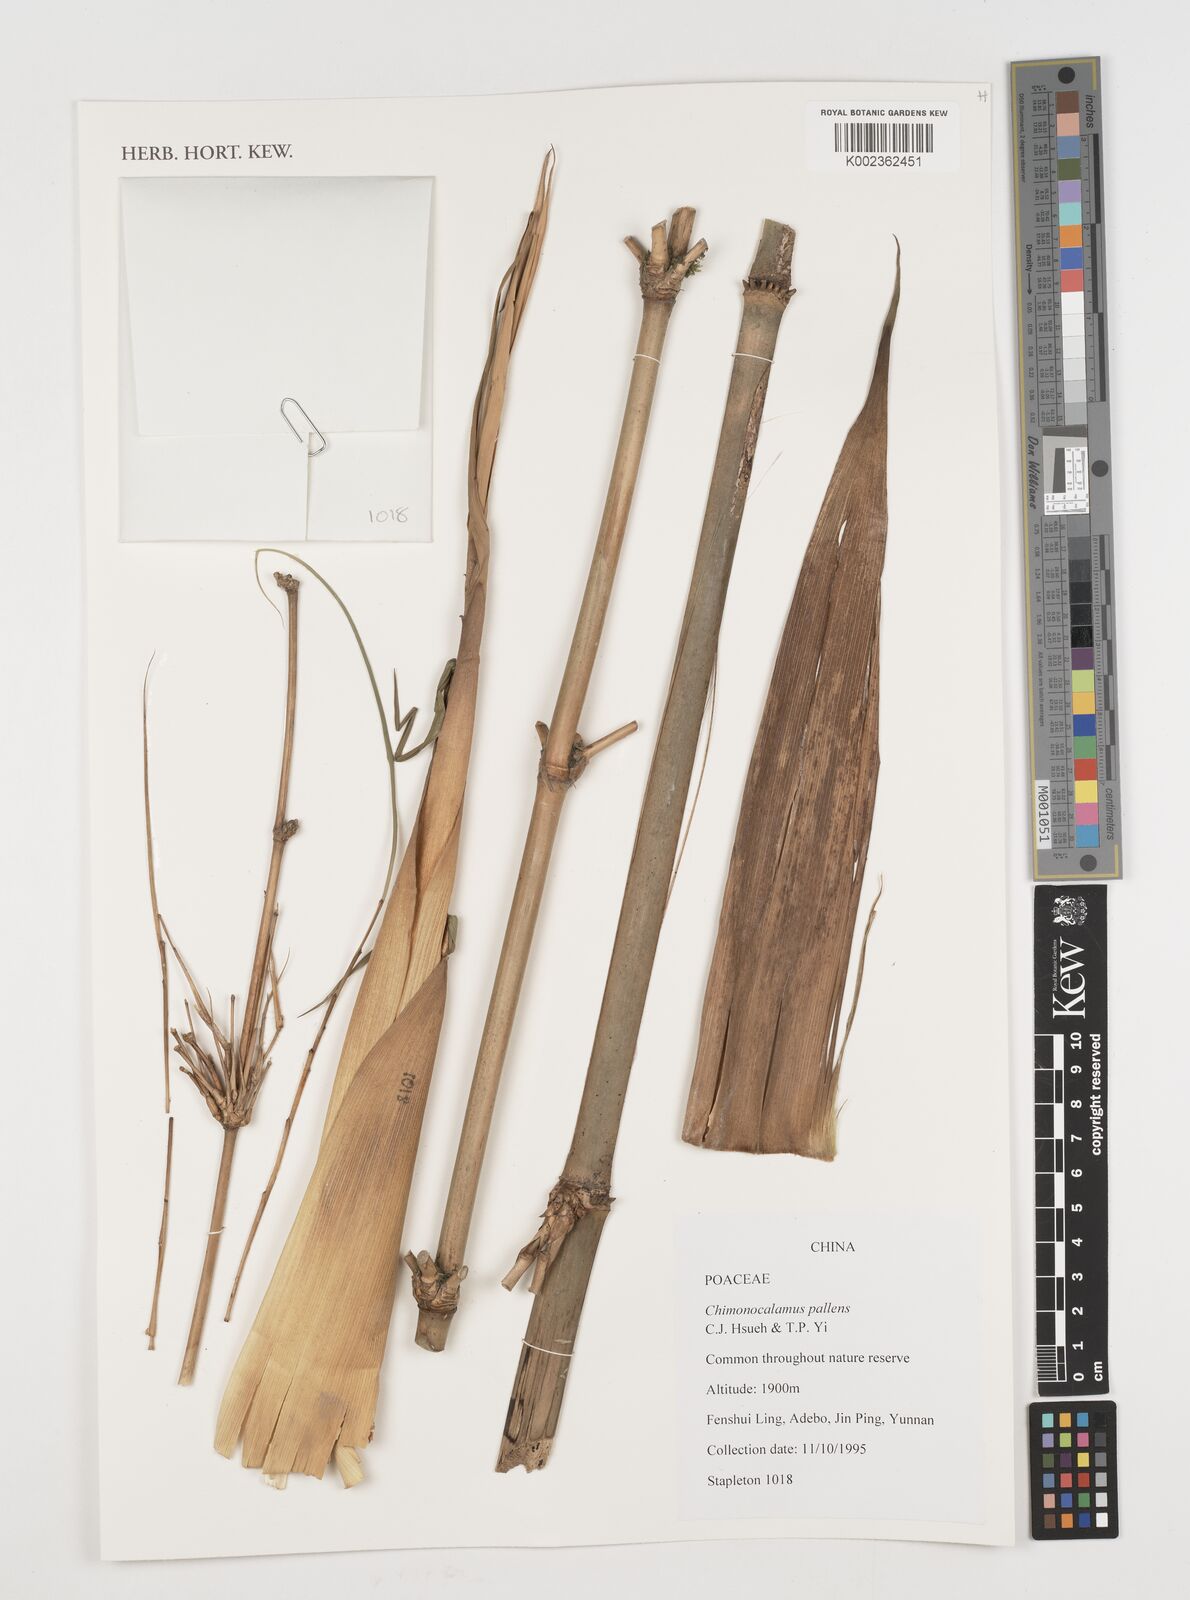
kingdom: Plantae
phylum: Tracheophyta
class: Liliopsida
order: Poales
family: Poaceae
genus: Chimonocalamus
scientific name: Chimonocalamus pallens
